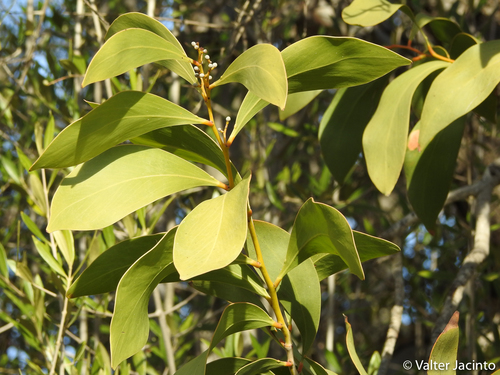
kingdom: Plantae
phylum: Tracheophyta
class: Magnoliopsida
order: Fabales
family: Fabaceae
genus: Acacia
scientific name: Acacia pycnantha
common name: Golden wattle
